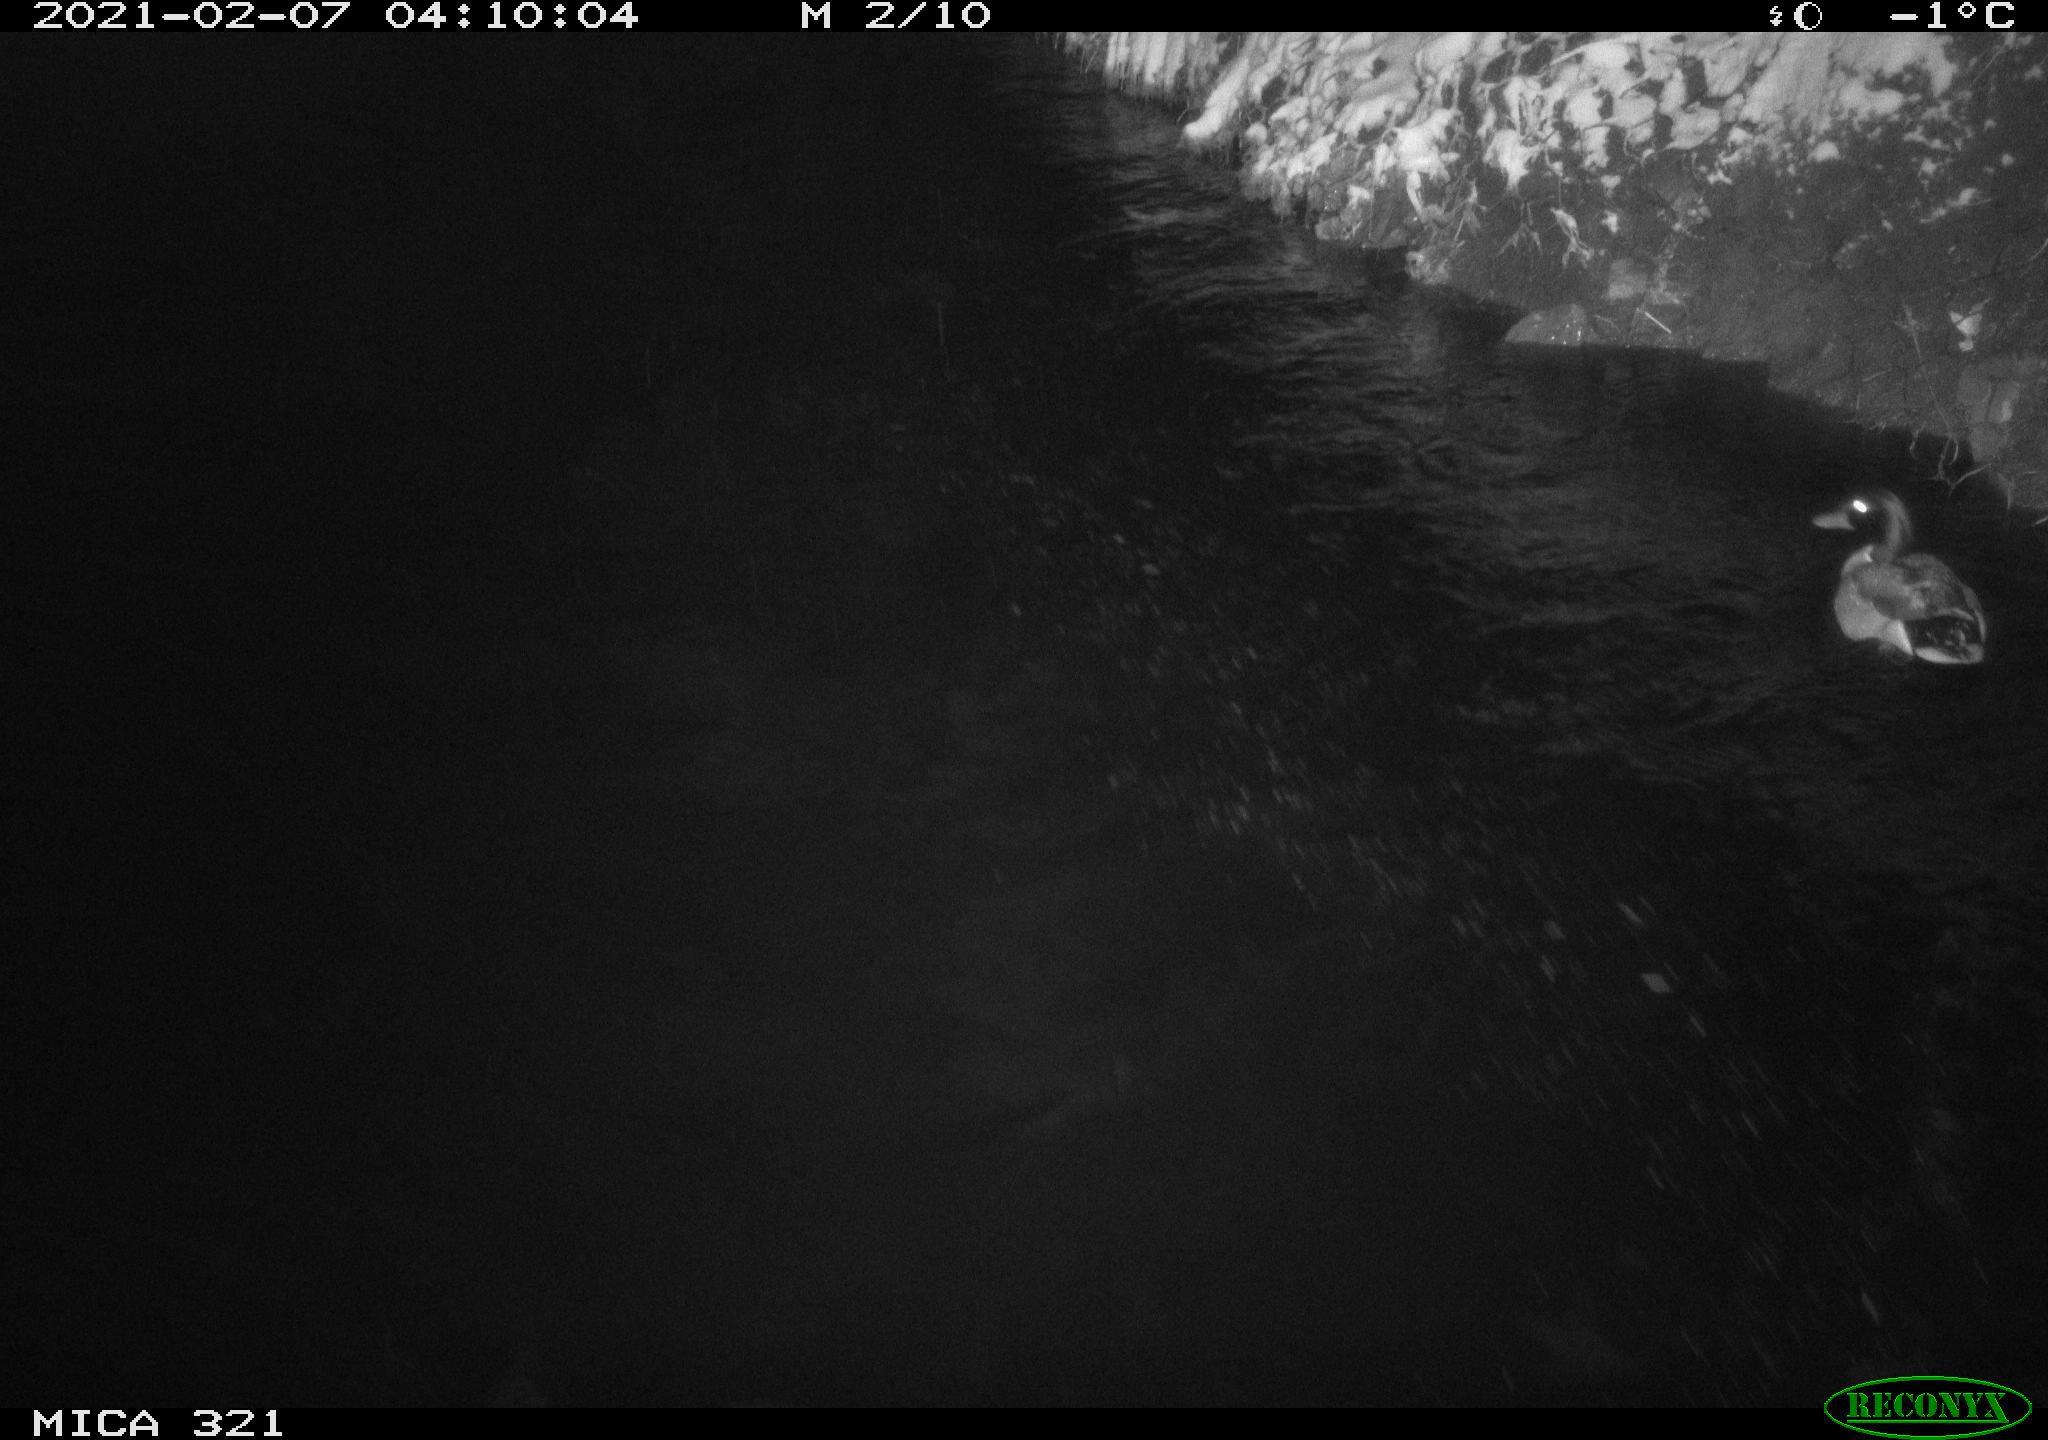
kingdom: Animalia
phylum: Chordata
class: Aves
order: Anseriformes
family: Anatidae
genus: Anas
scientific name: Anas platyrhynchos
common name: Mallard
